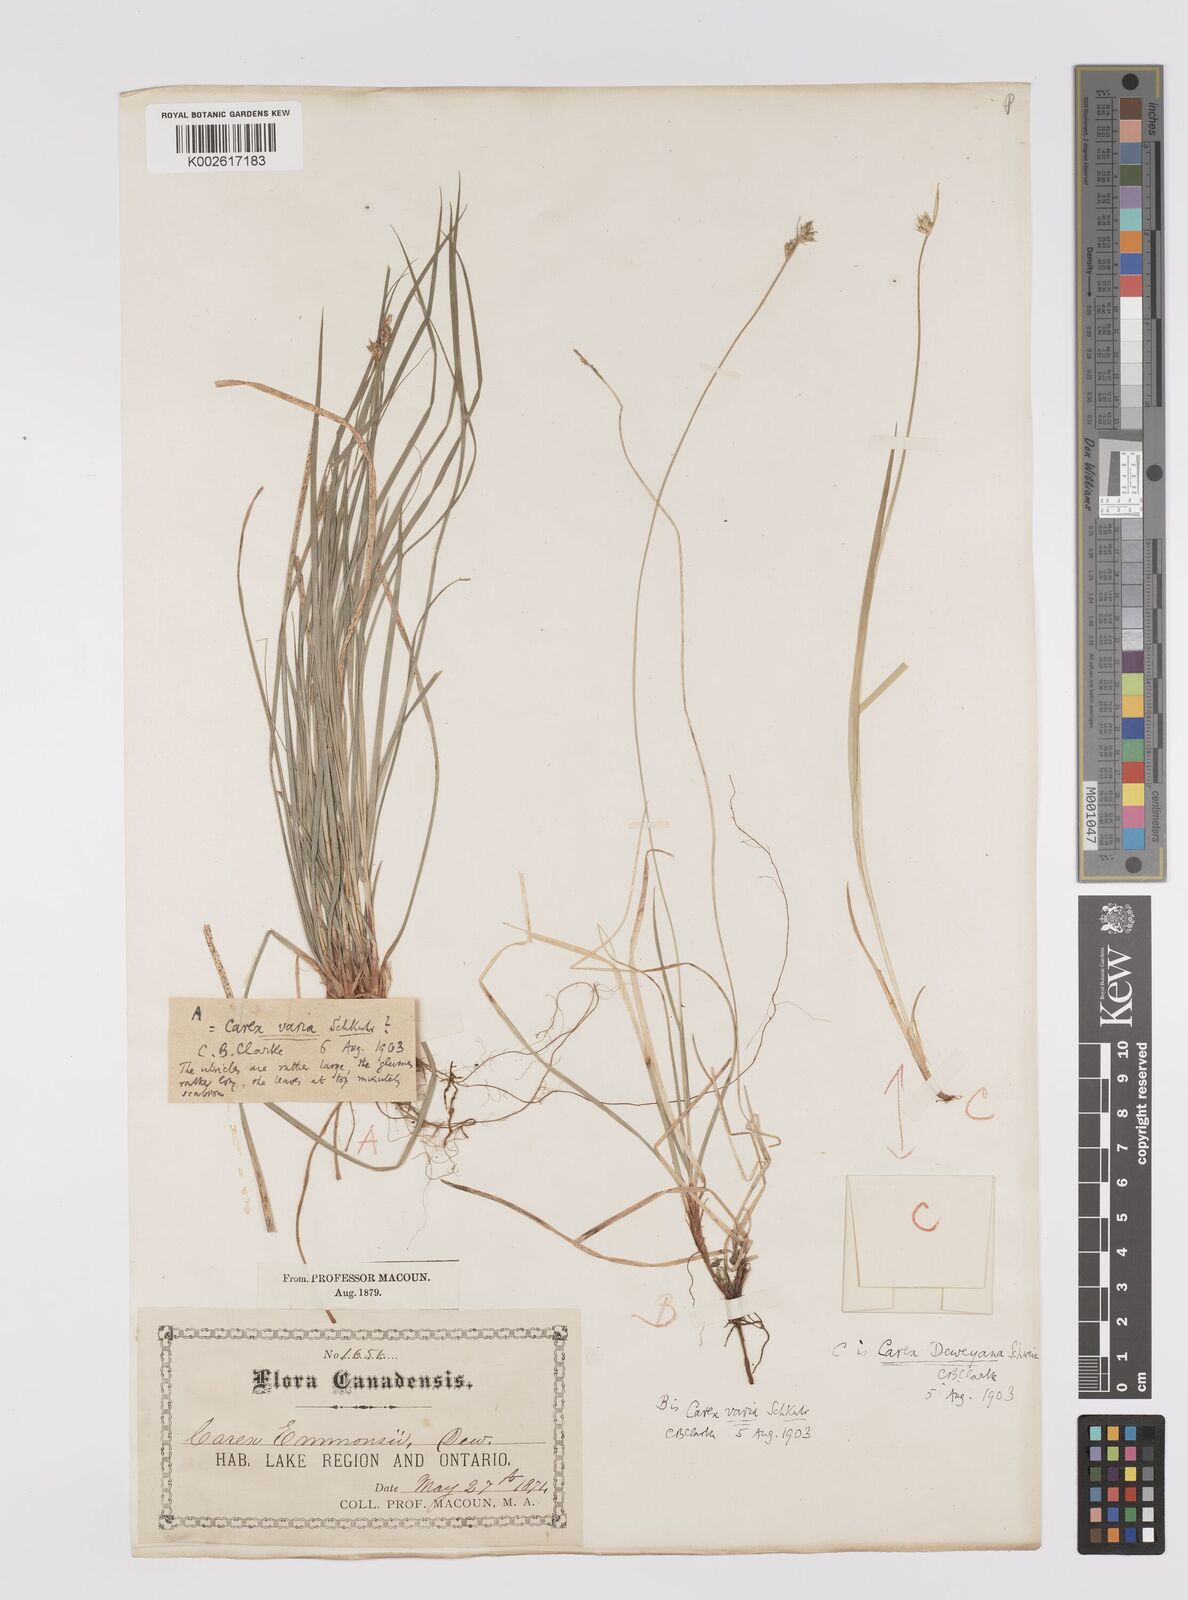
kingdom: Plantae
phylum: Tracheophyta
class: Liliopsida
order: Poales
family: Cyperaceae
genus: Carex
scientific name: Carex albicans
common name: Bellow-beaked sedge
